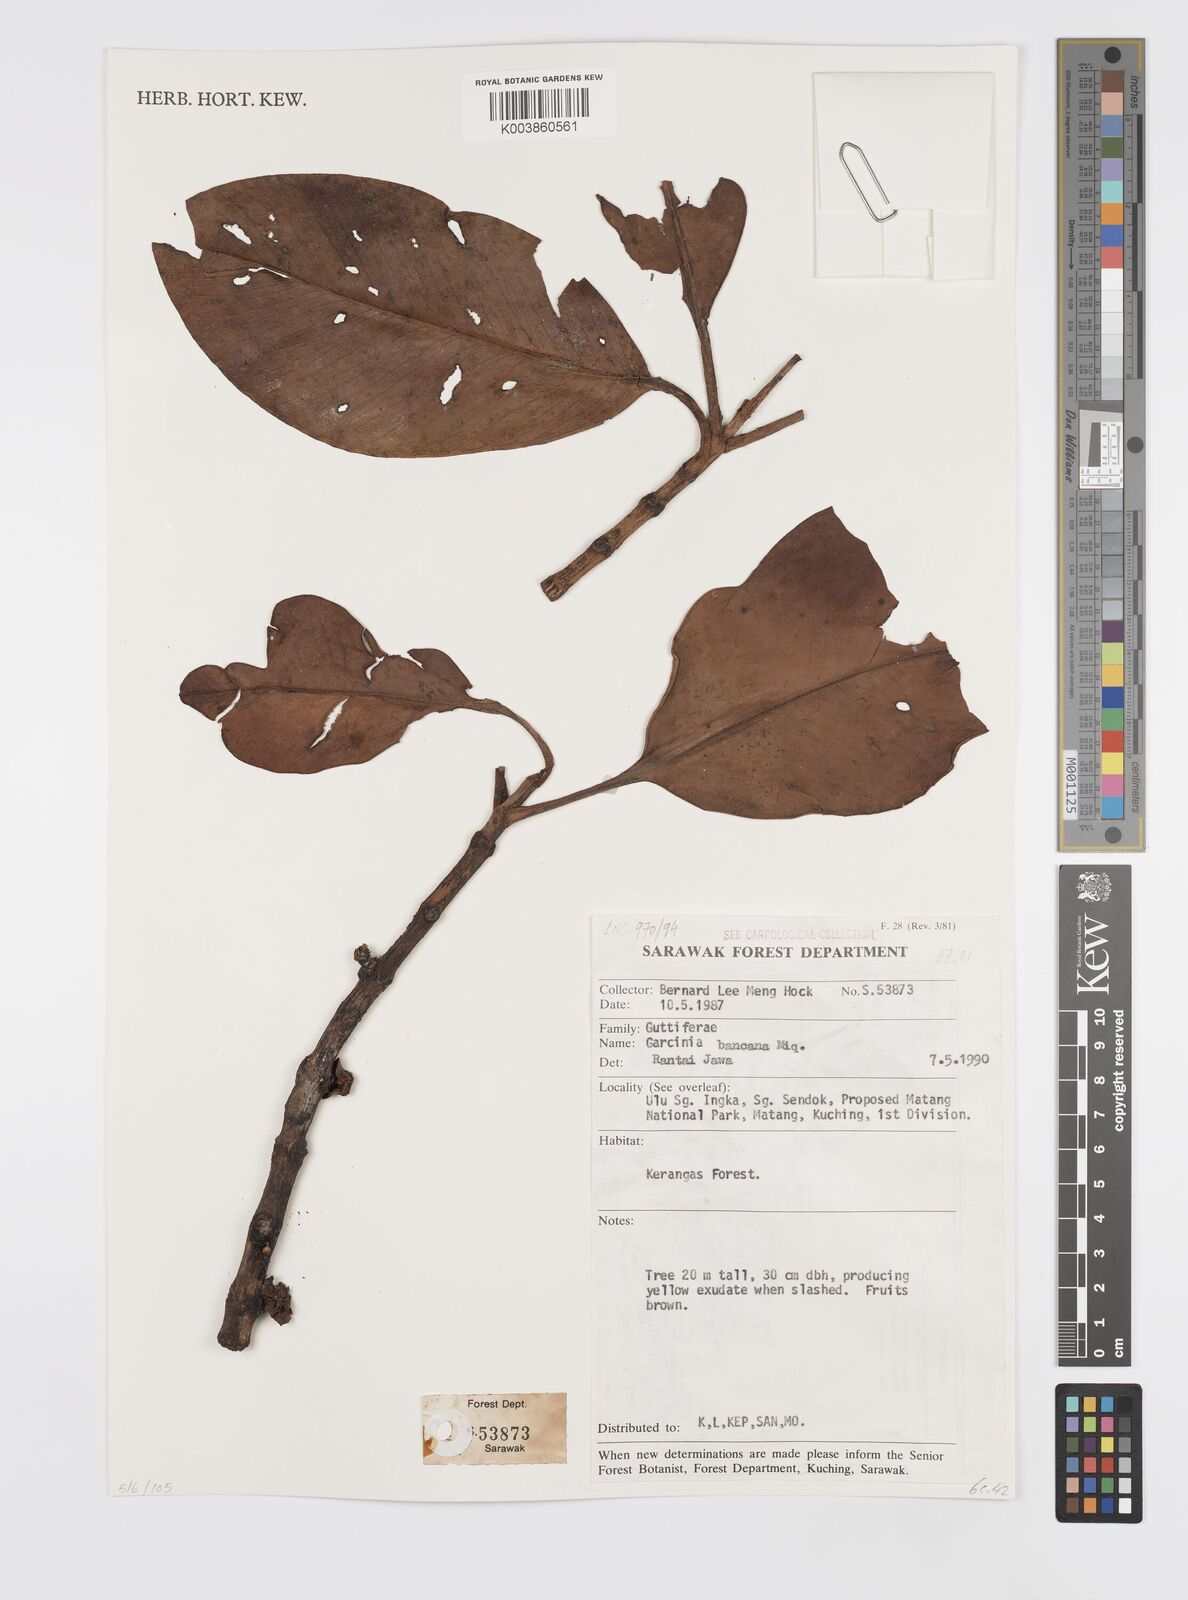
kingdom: Plantae
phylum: Tracheophyta
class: Magnoliopsida
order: Malpighiales
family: Clusiaceae
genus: Garcinia
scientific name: Garcinia bancana
